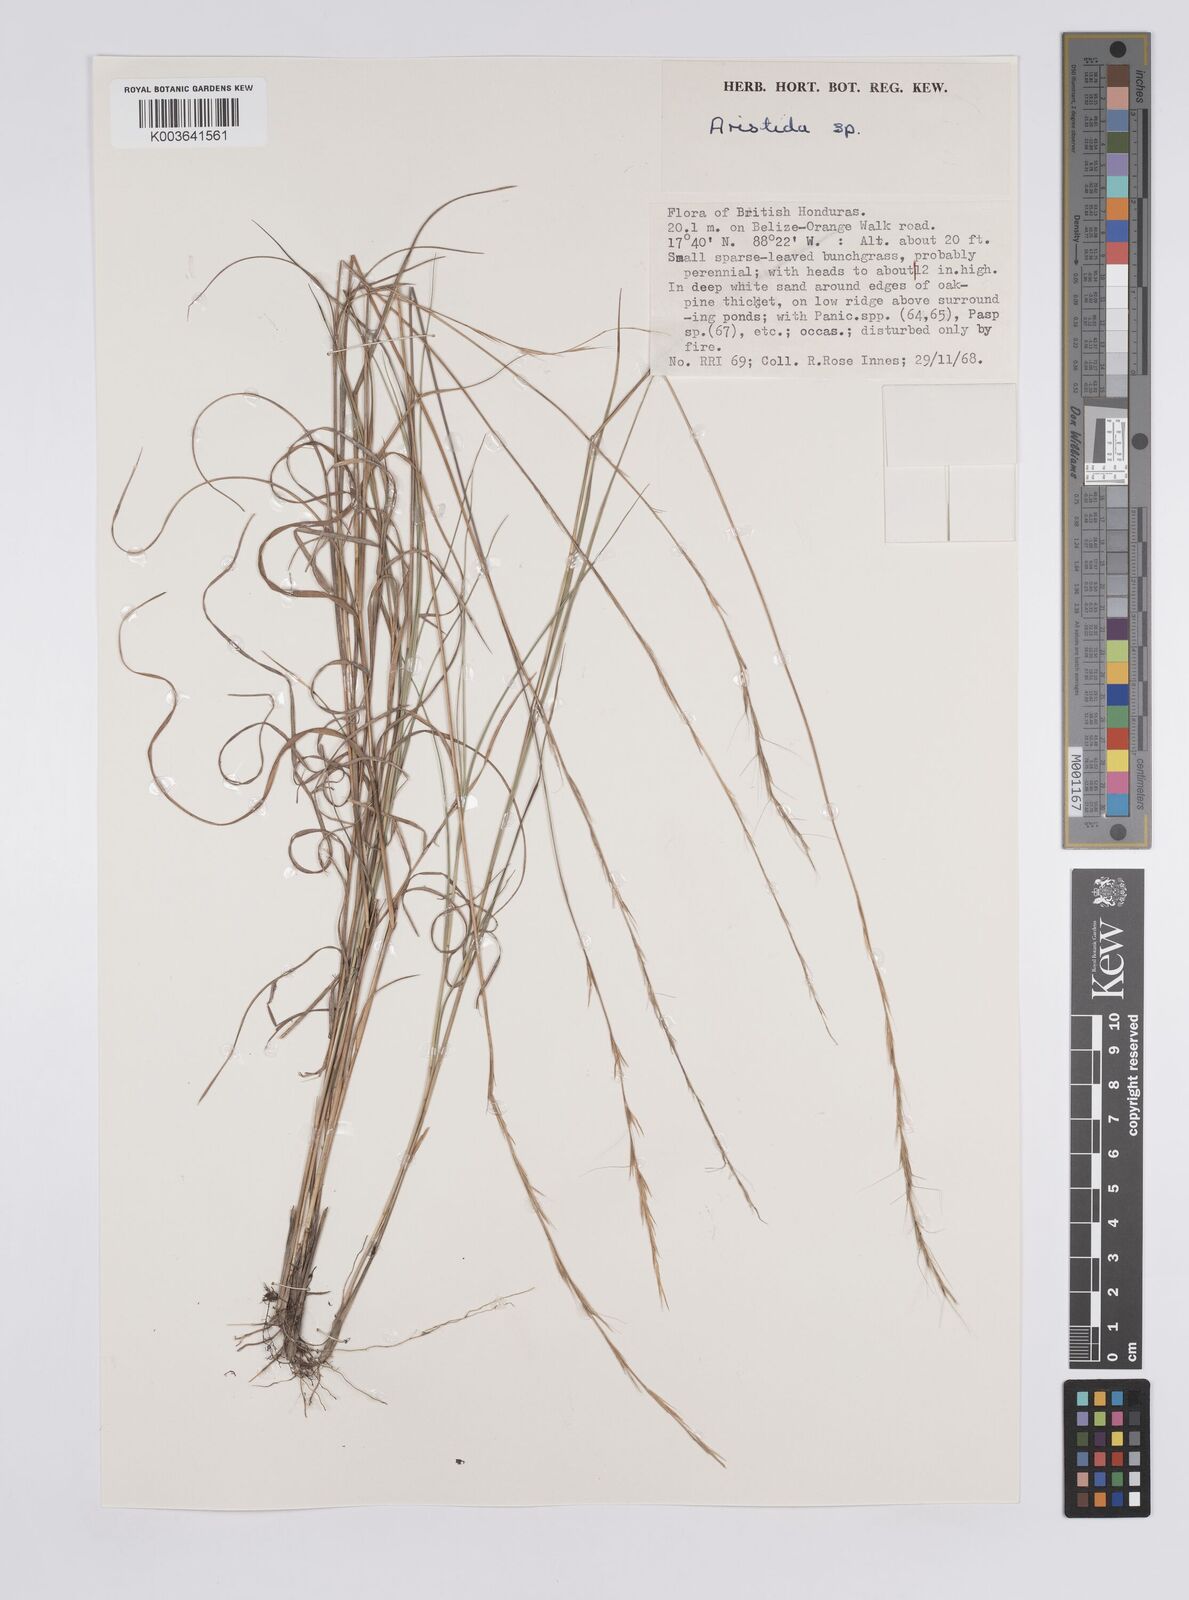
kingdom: Plantae
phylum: Tracheophyta
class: Liliopsida
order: Poales
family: Poaceae
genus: Aristida
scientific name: Aristida
